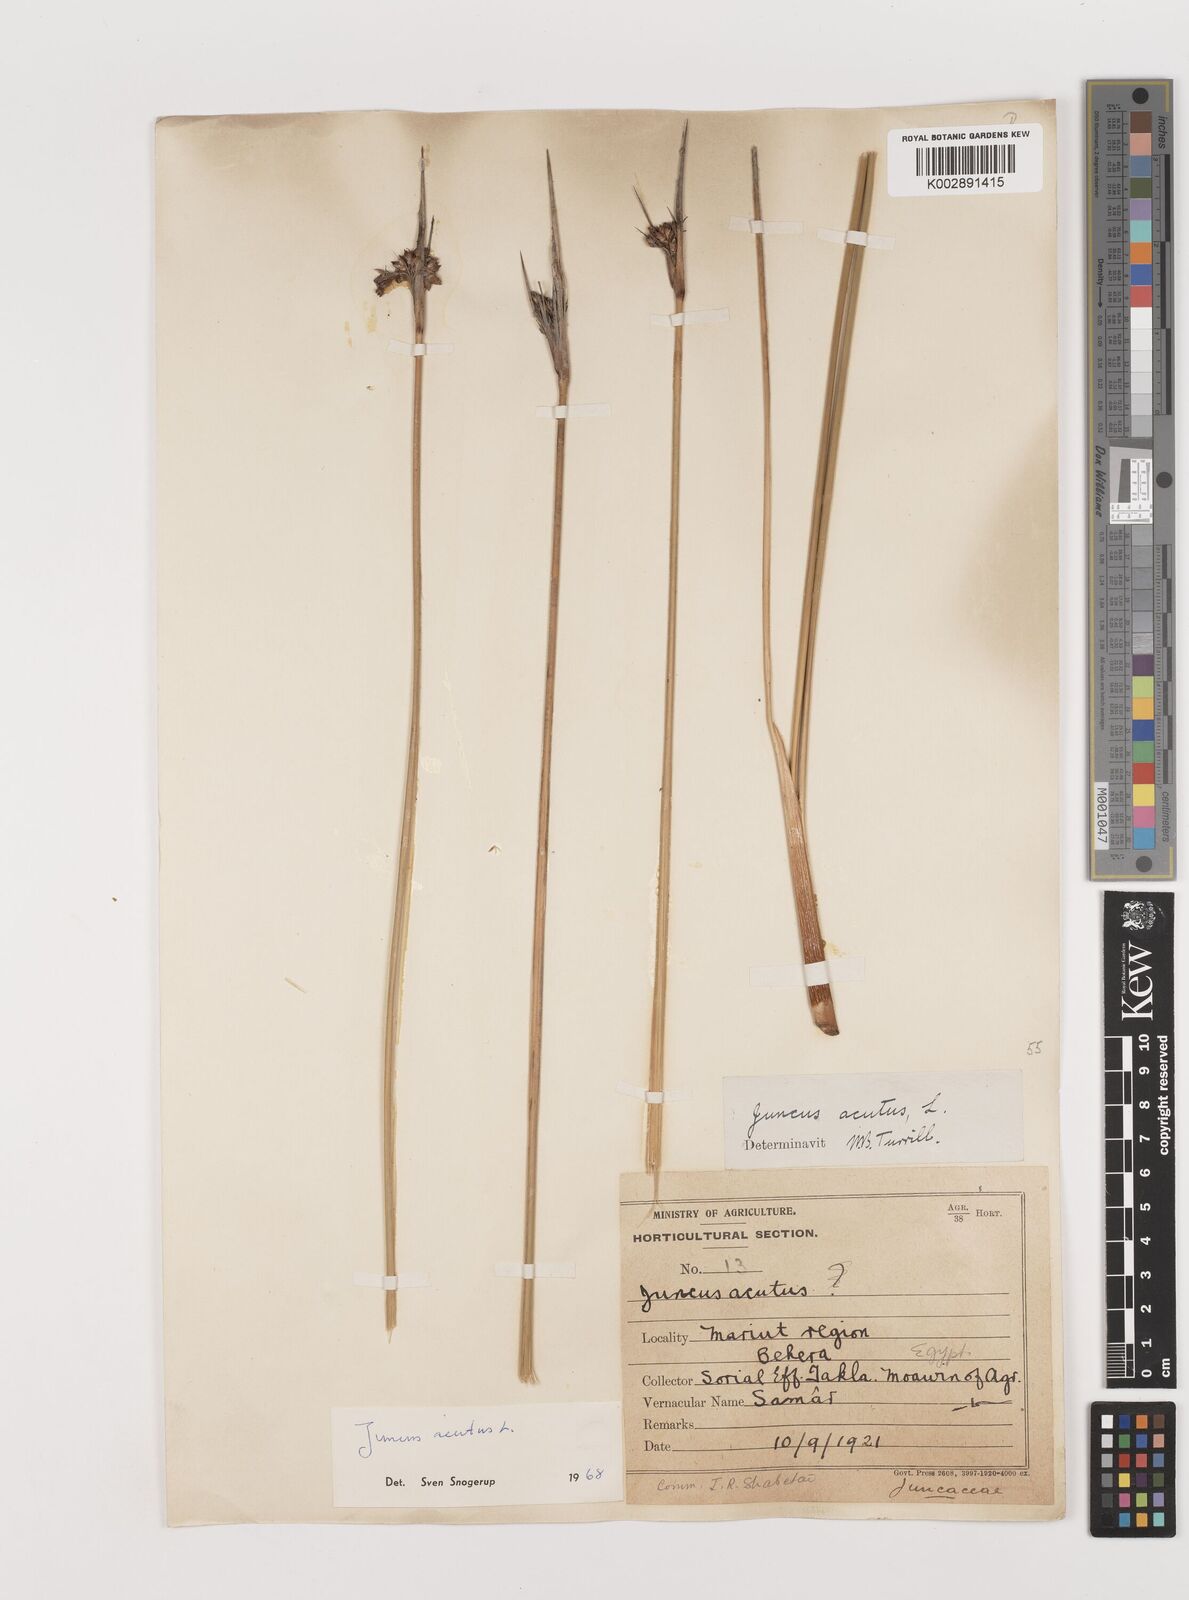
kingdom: Plantae
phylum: Tracheophyta
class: Liliopsida
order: Poales
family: Juncaceae
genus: Juncus
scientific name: Juncus acutus
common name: Sharp rush
